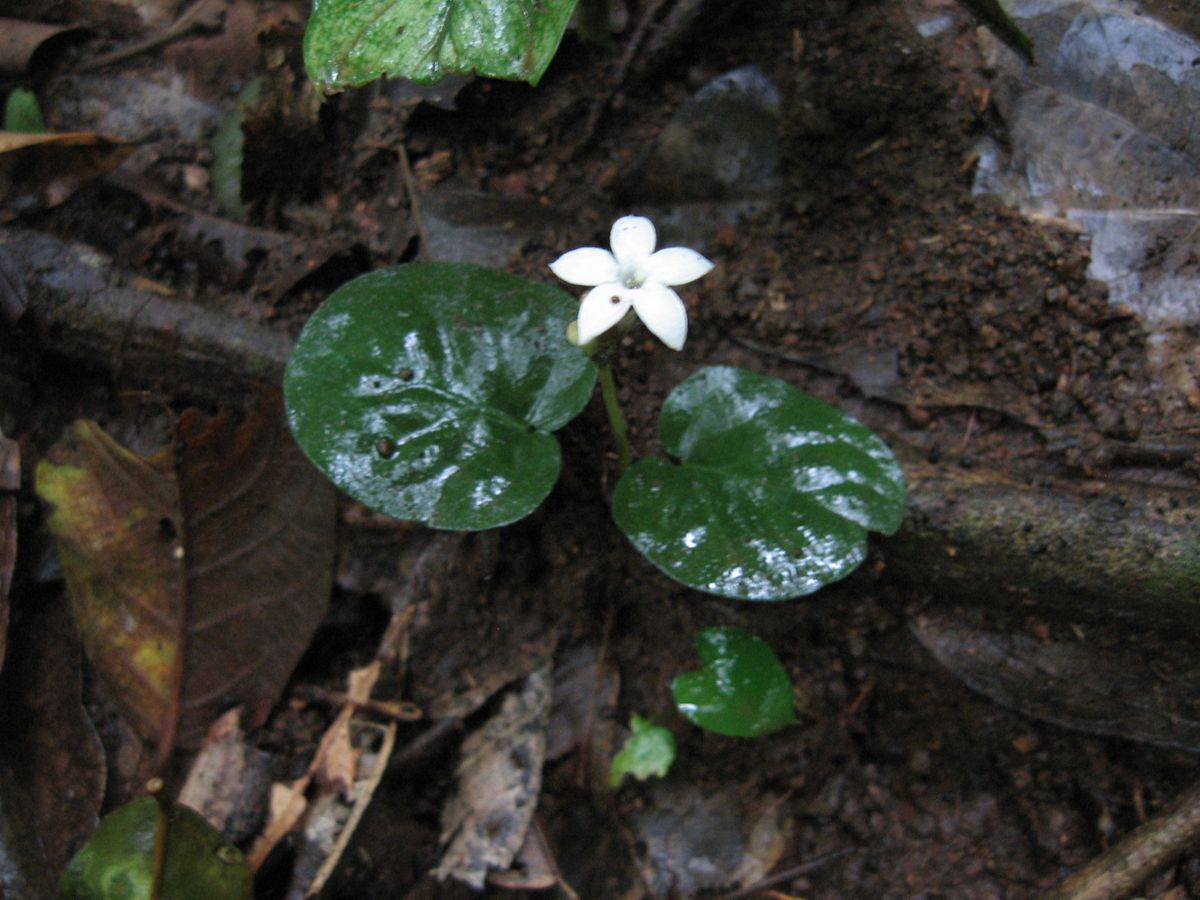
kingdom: Plantae
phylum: Tracheophyta
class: Magnoliopsida
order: Gentianales
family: Rubiaceae
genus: Geophila
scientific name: Geophila repens
